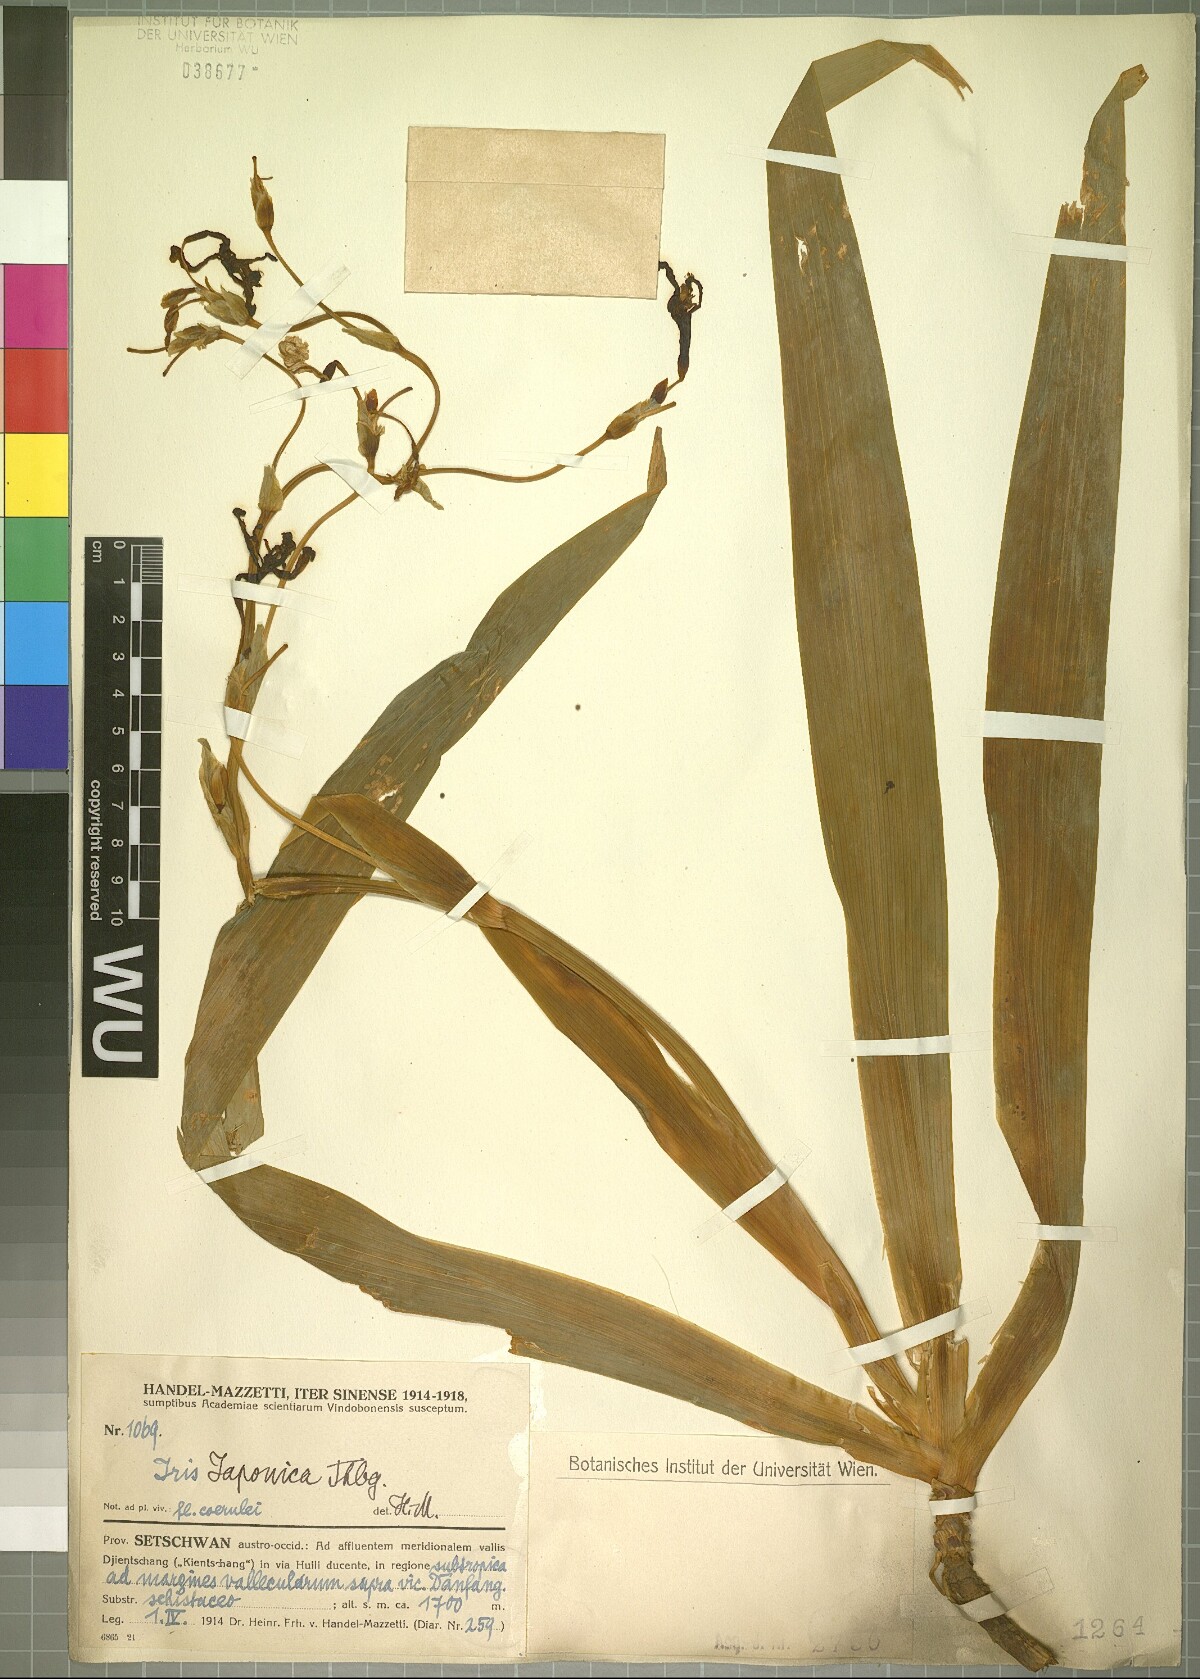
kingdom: Plantae
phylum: Tracheophyta
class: Liliopsida
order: Asparagales
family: Iridaceae
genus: Iris
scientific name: Iris japonica
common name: Butterfly-flower
